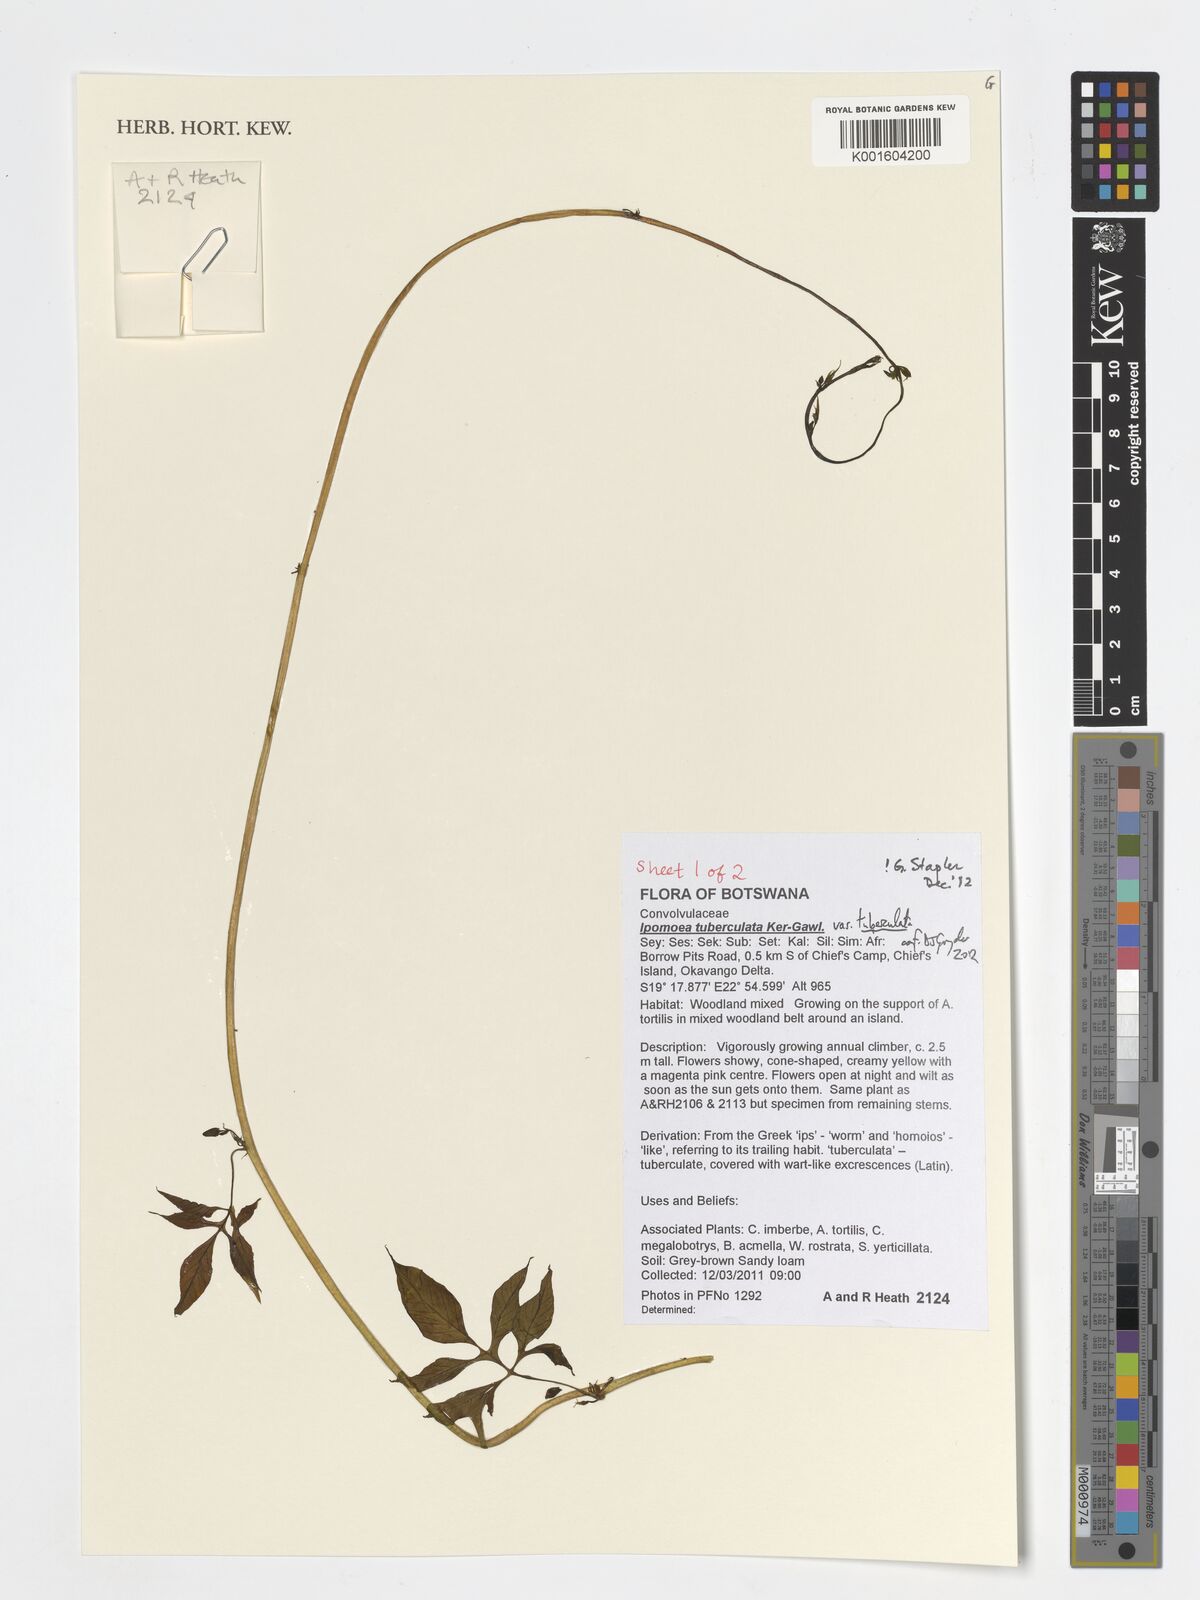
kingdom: Plantae
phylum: Tracheophyta
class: Magnoliopsida
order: Solanales
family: Convolvulaceae
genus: Ipomoea
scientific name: Ipomoea tuberculata
